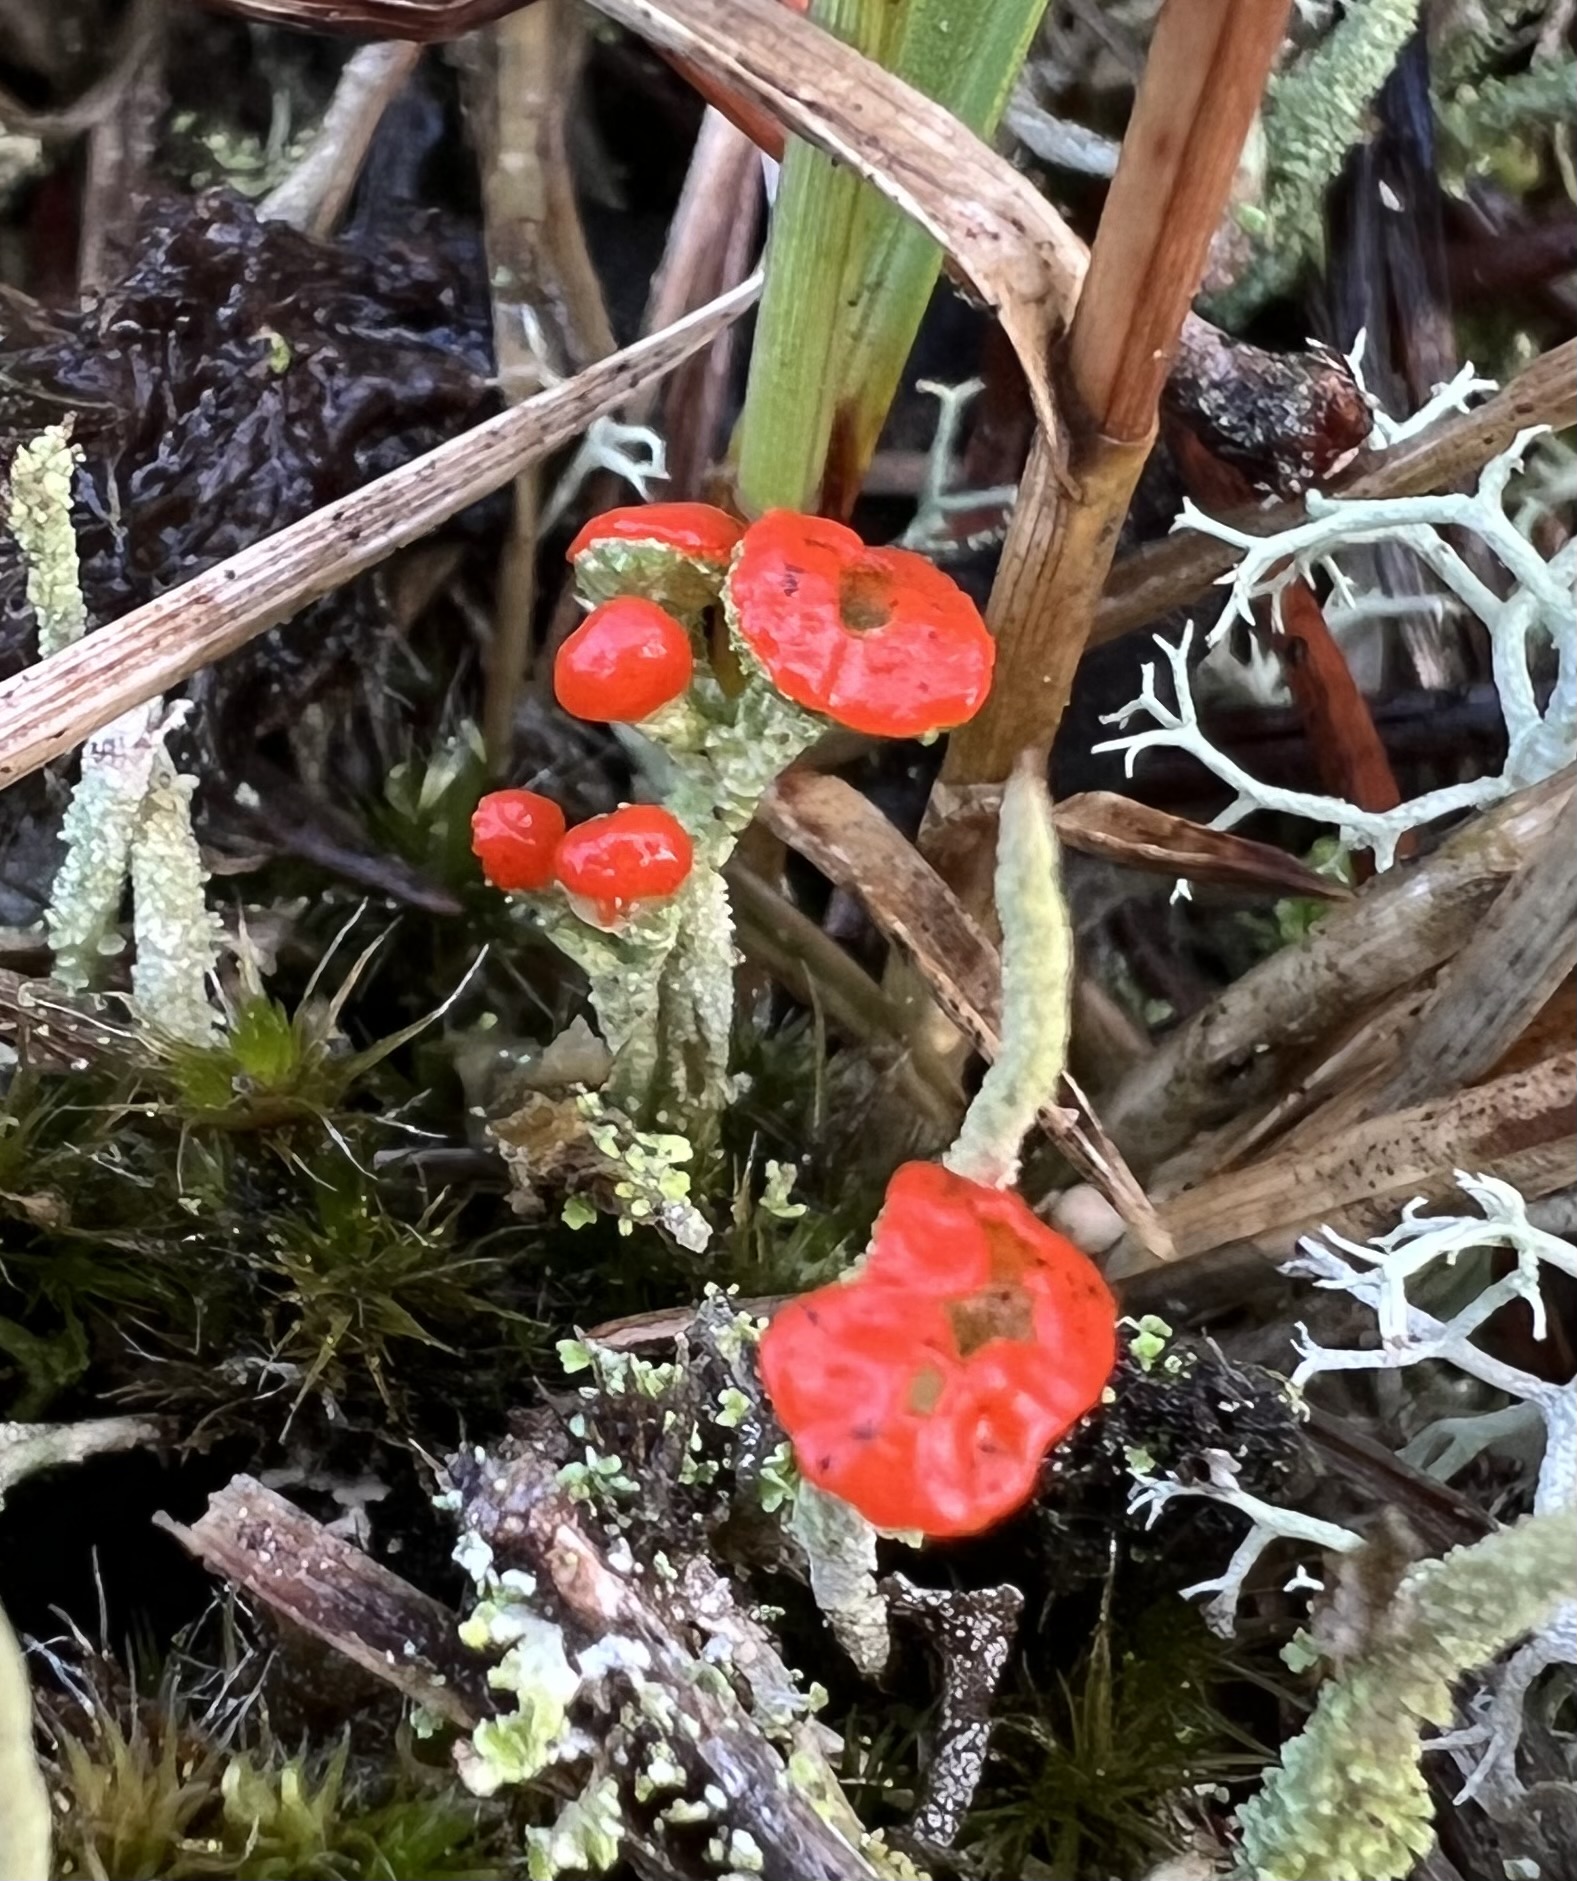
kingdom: Fungi
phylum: Ascomycota
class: Lecanoromycetes
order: Lecanorales
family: Cladoniaceae
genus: Cladonia
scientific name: Cladonia floerkeana
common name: lakrød bægerlav
